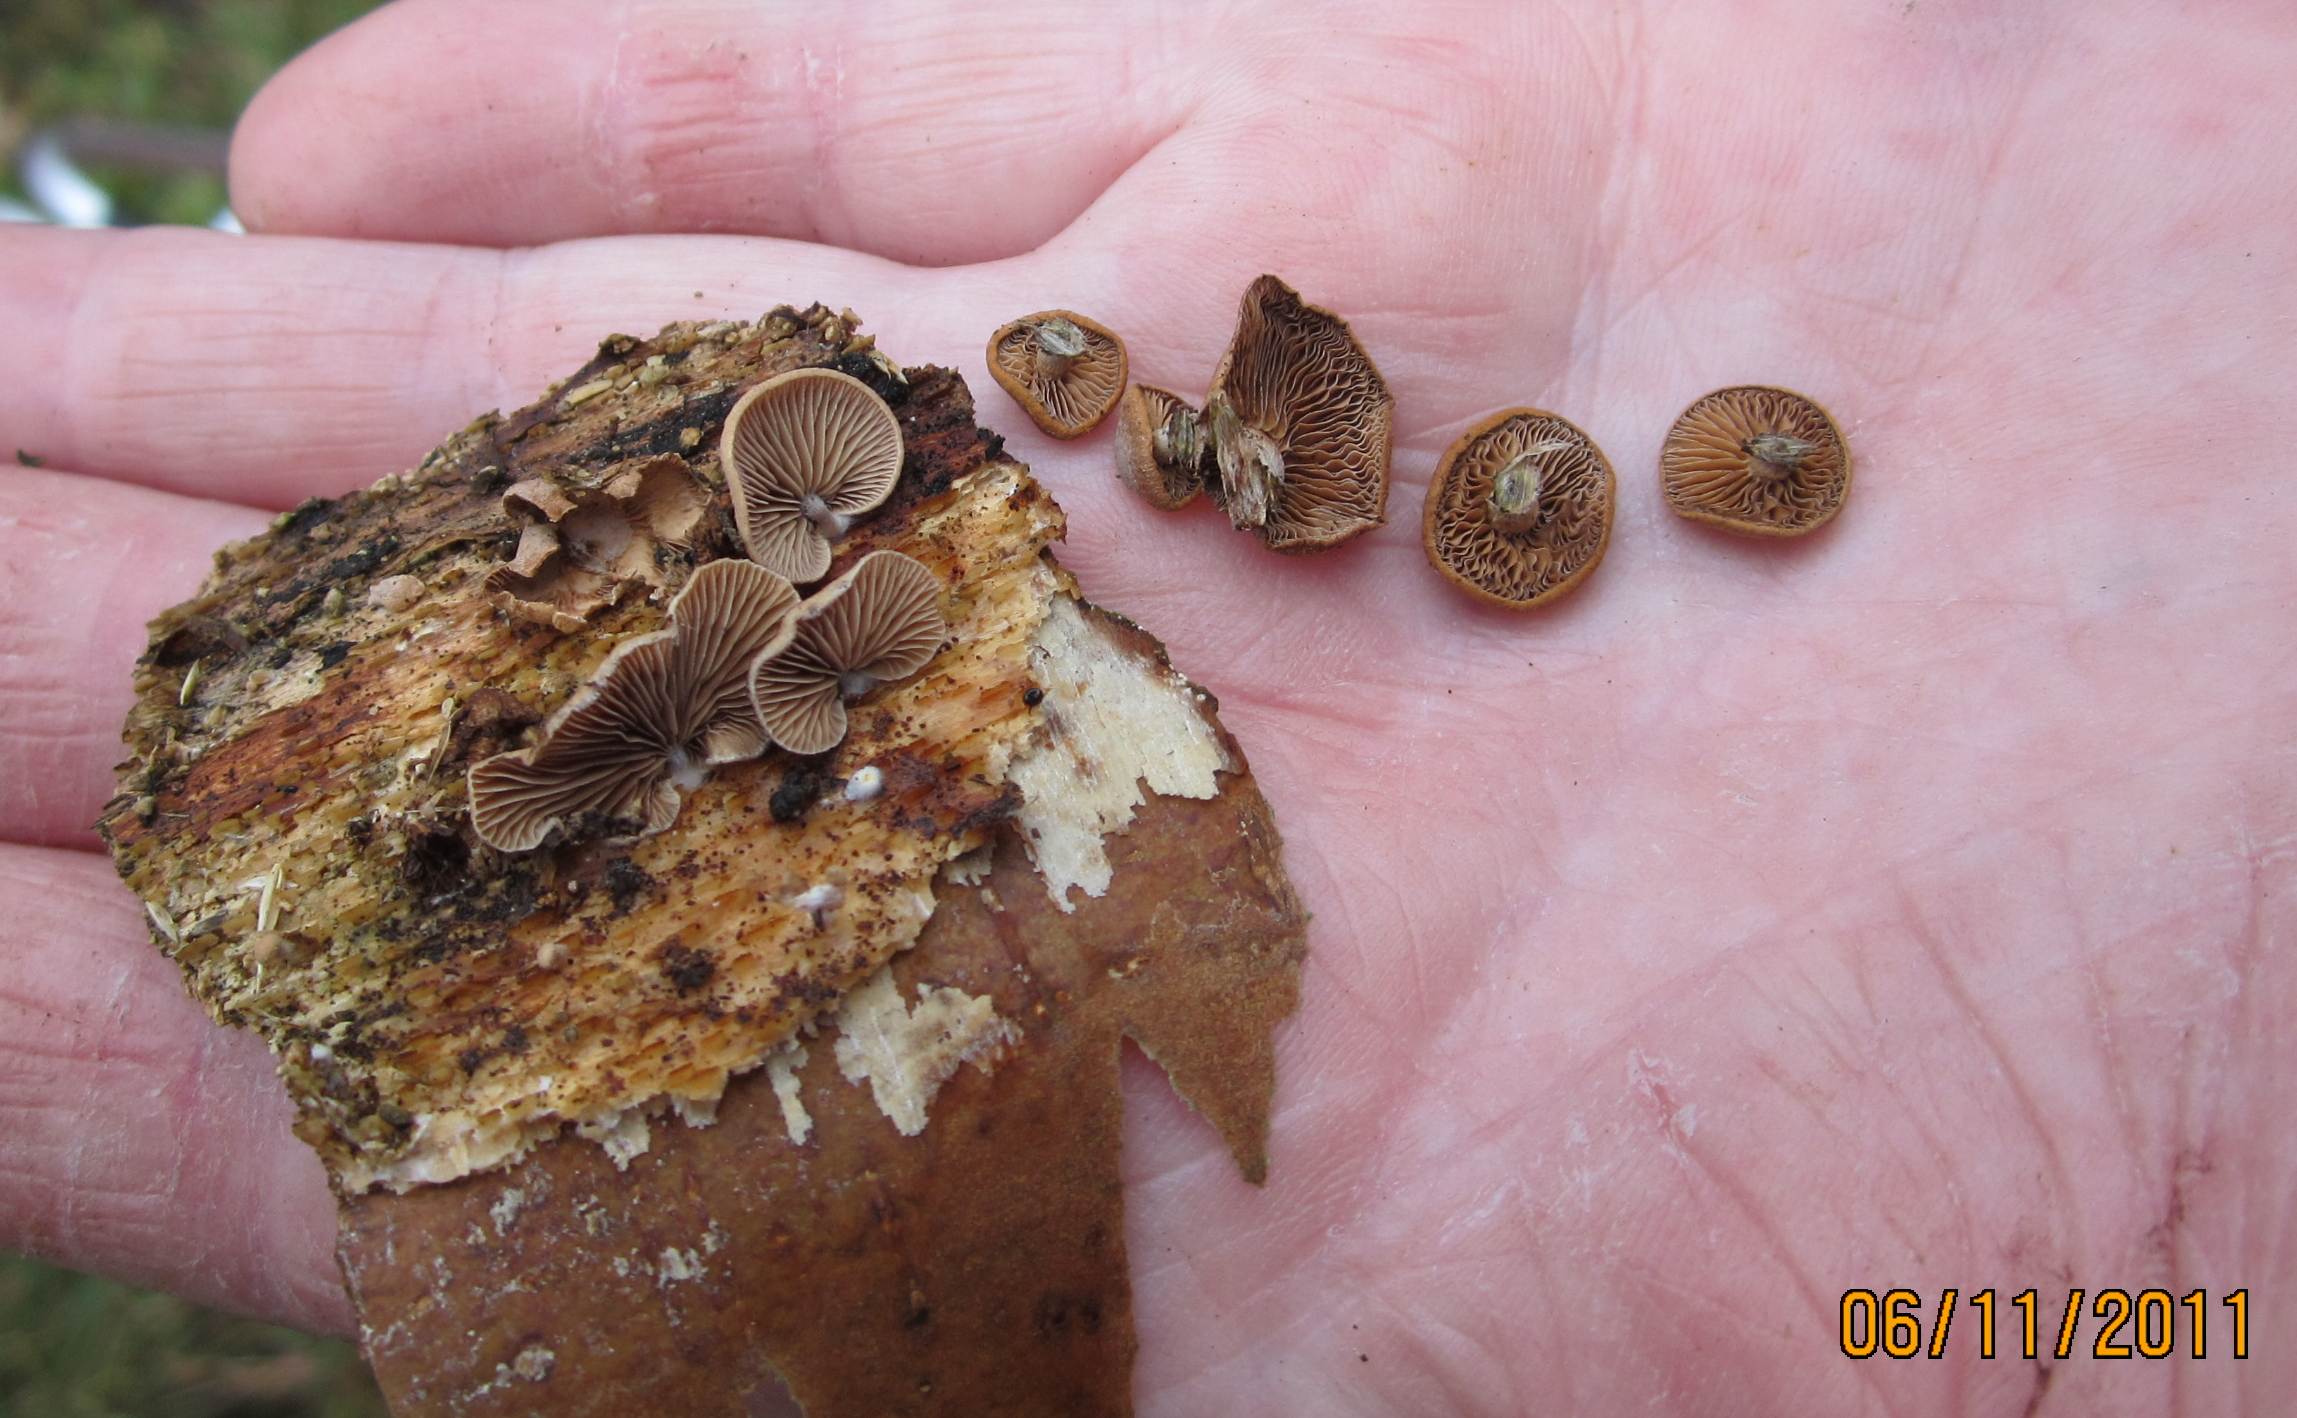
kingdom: Fungi
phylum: Basidiomycota
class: Agaricomycetes
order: Agaricales
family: Strophariaceae
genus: Deconica
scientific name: Deconica horizontalis
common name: ved-stråhat
